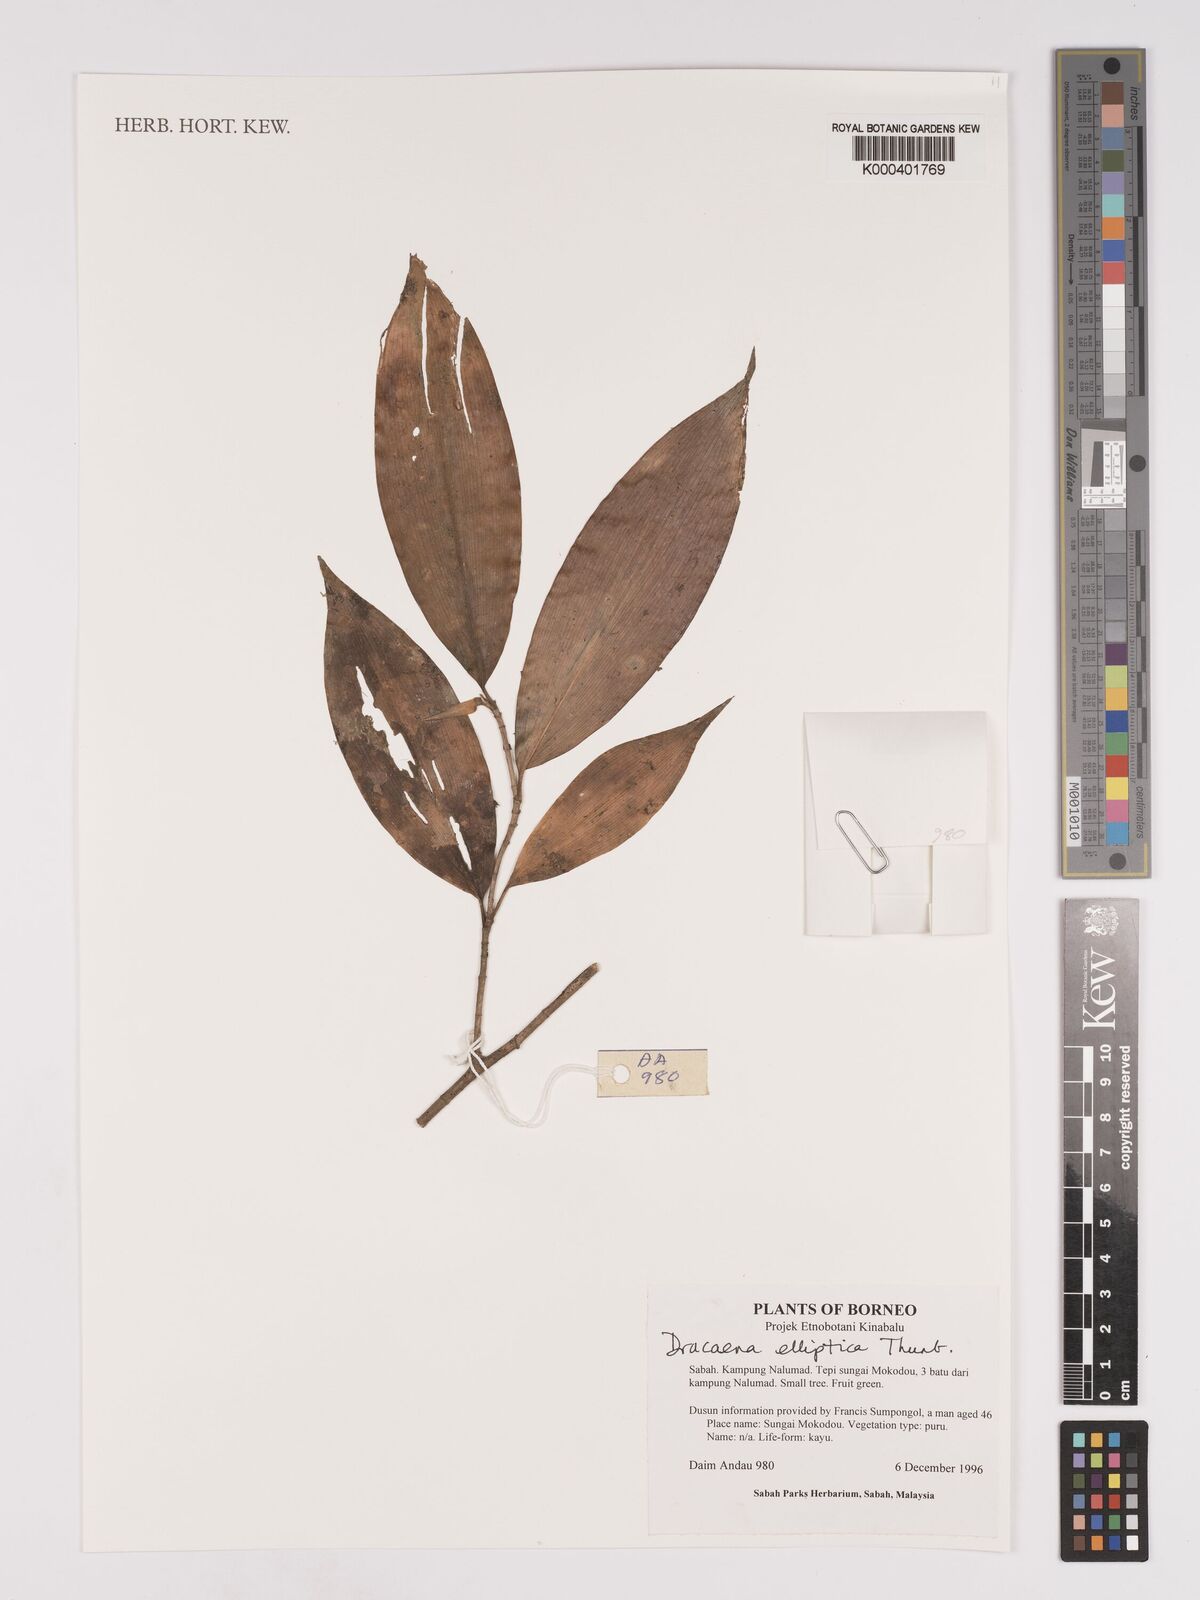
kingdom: Plantae
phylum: Tracheophyta
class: Liliopsida
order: Asparagales
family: Asparagaceae
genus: Dracaena
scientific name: Dracaena elliptica
